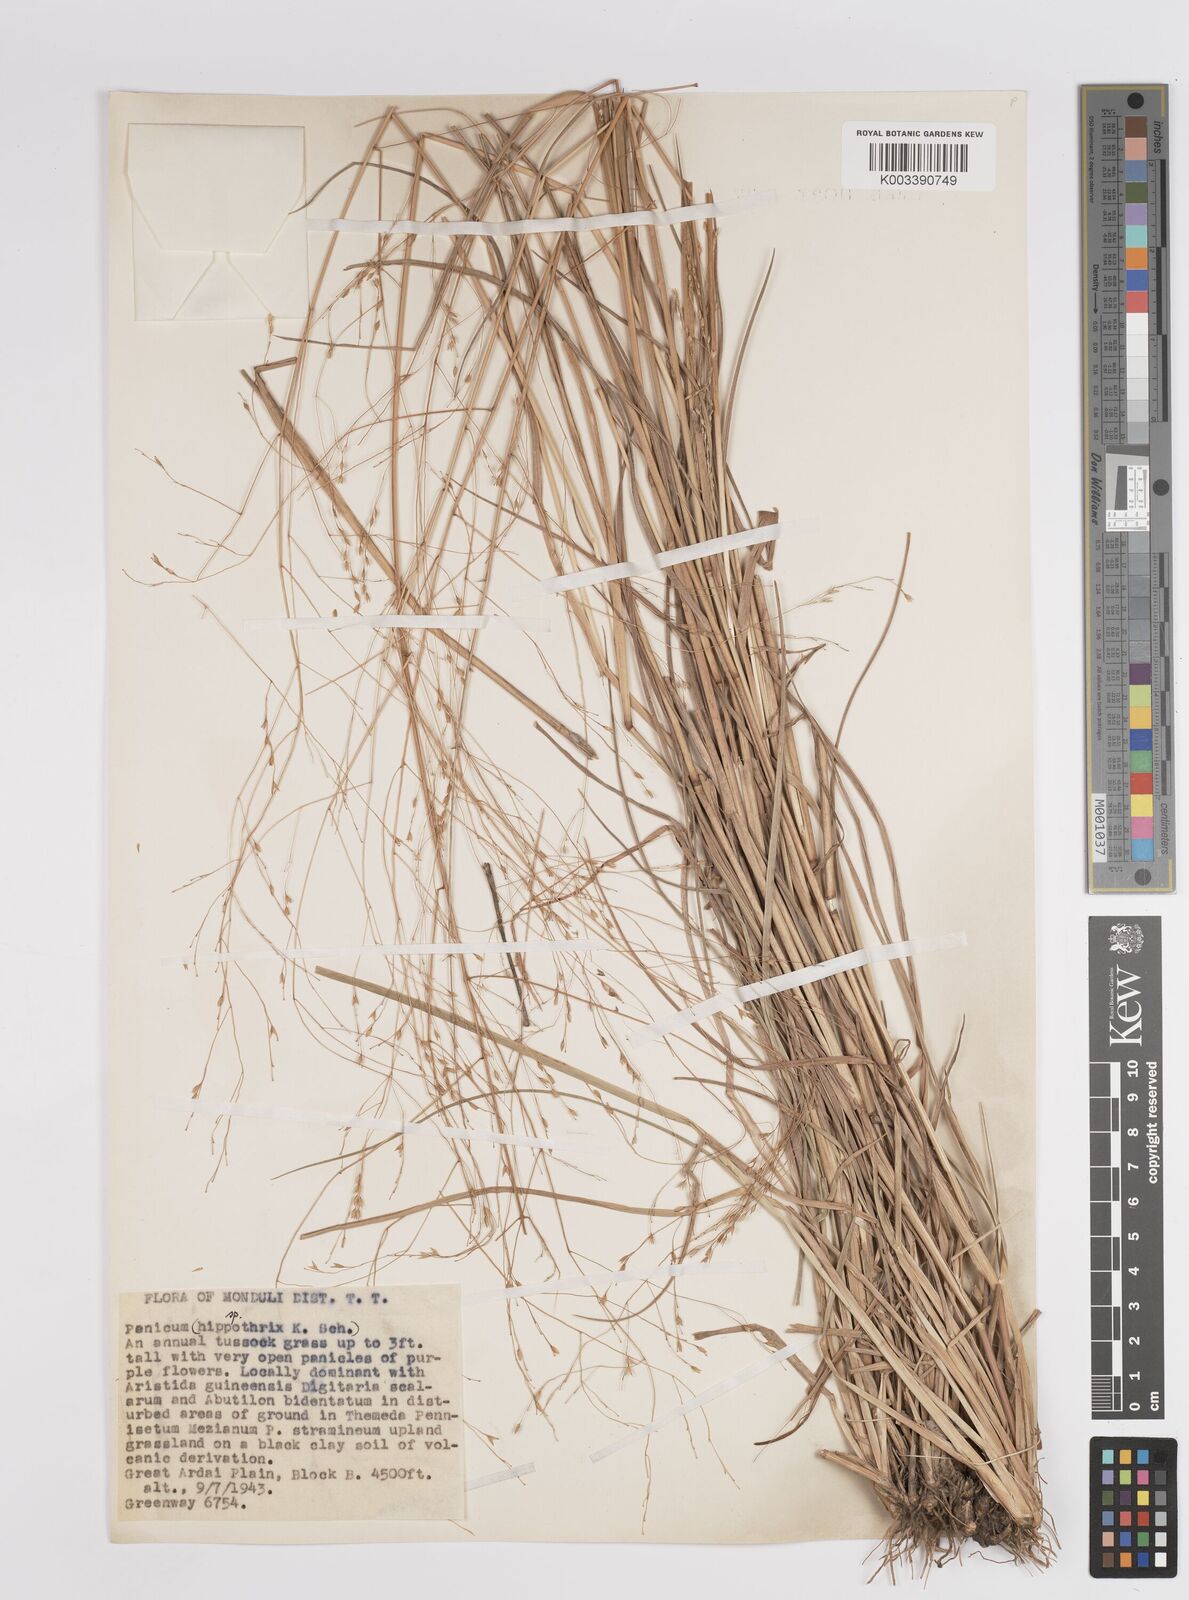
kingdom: Plantae
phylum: Tracheophyta
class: Liliopsida
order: Poales
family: Poaceae
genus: Panicum
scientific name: Panicum porphyrrhizos
